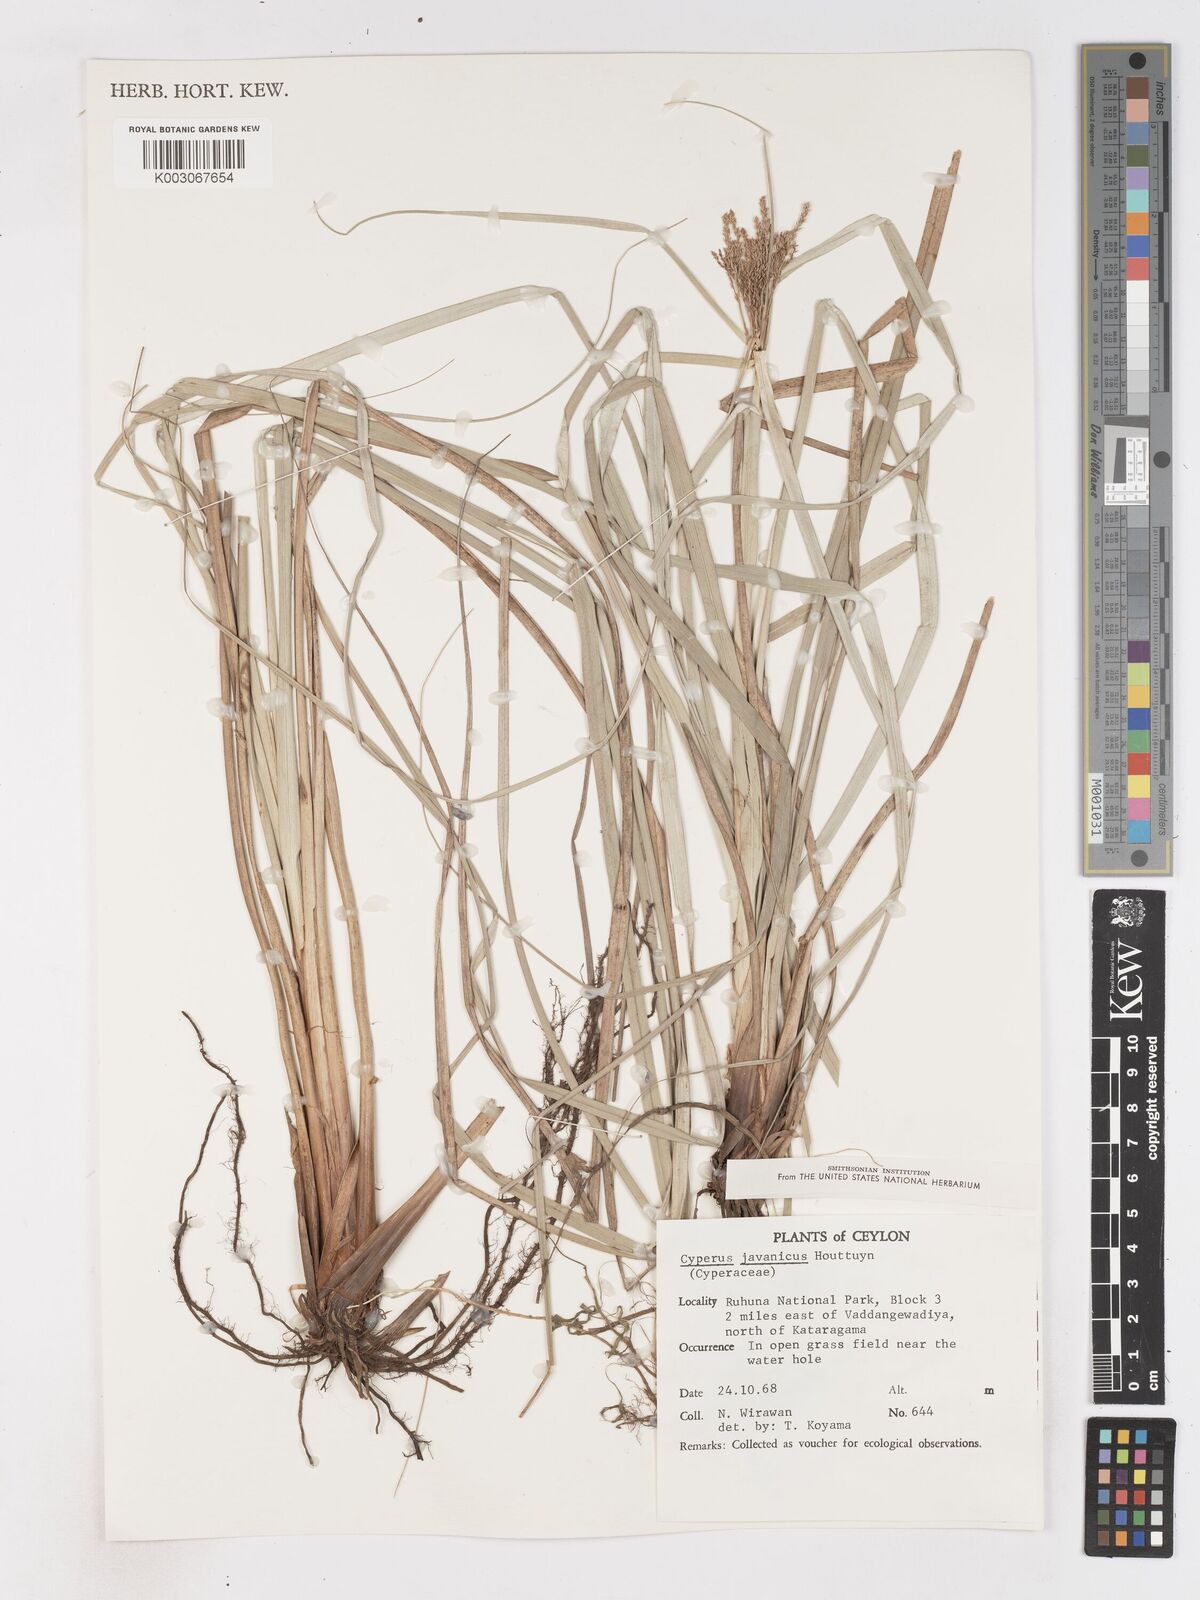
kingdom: Plantae
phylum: Tracheophyta
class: Liliopsida
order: Poales
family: Cyperaceae
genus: Cyperus
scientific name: Cyperus javanicus
